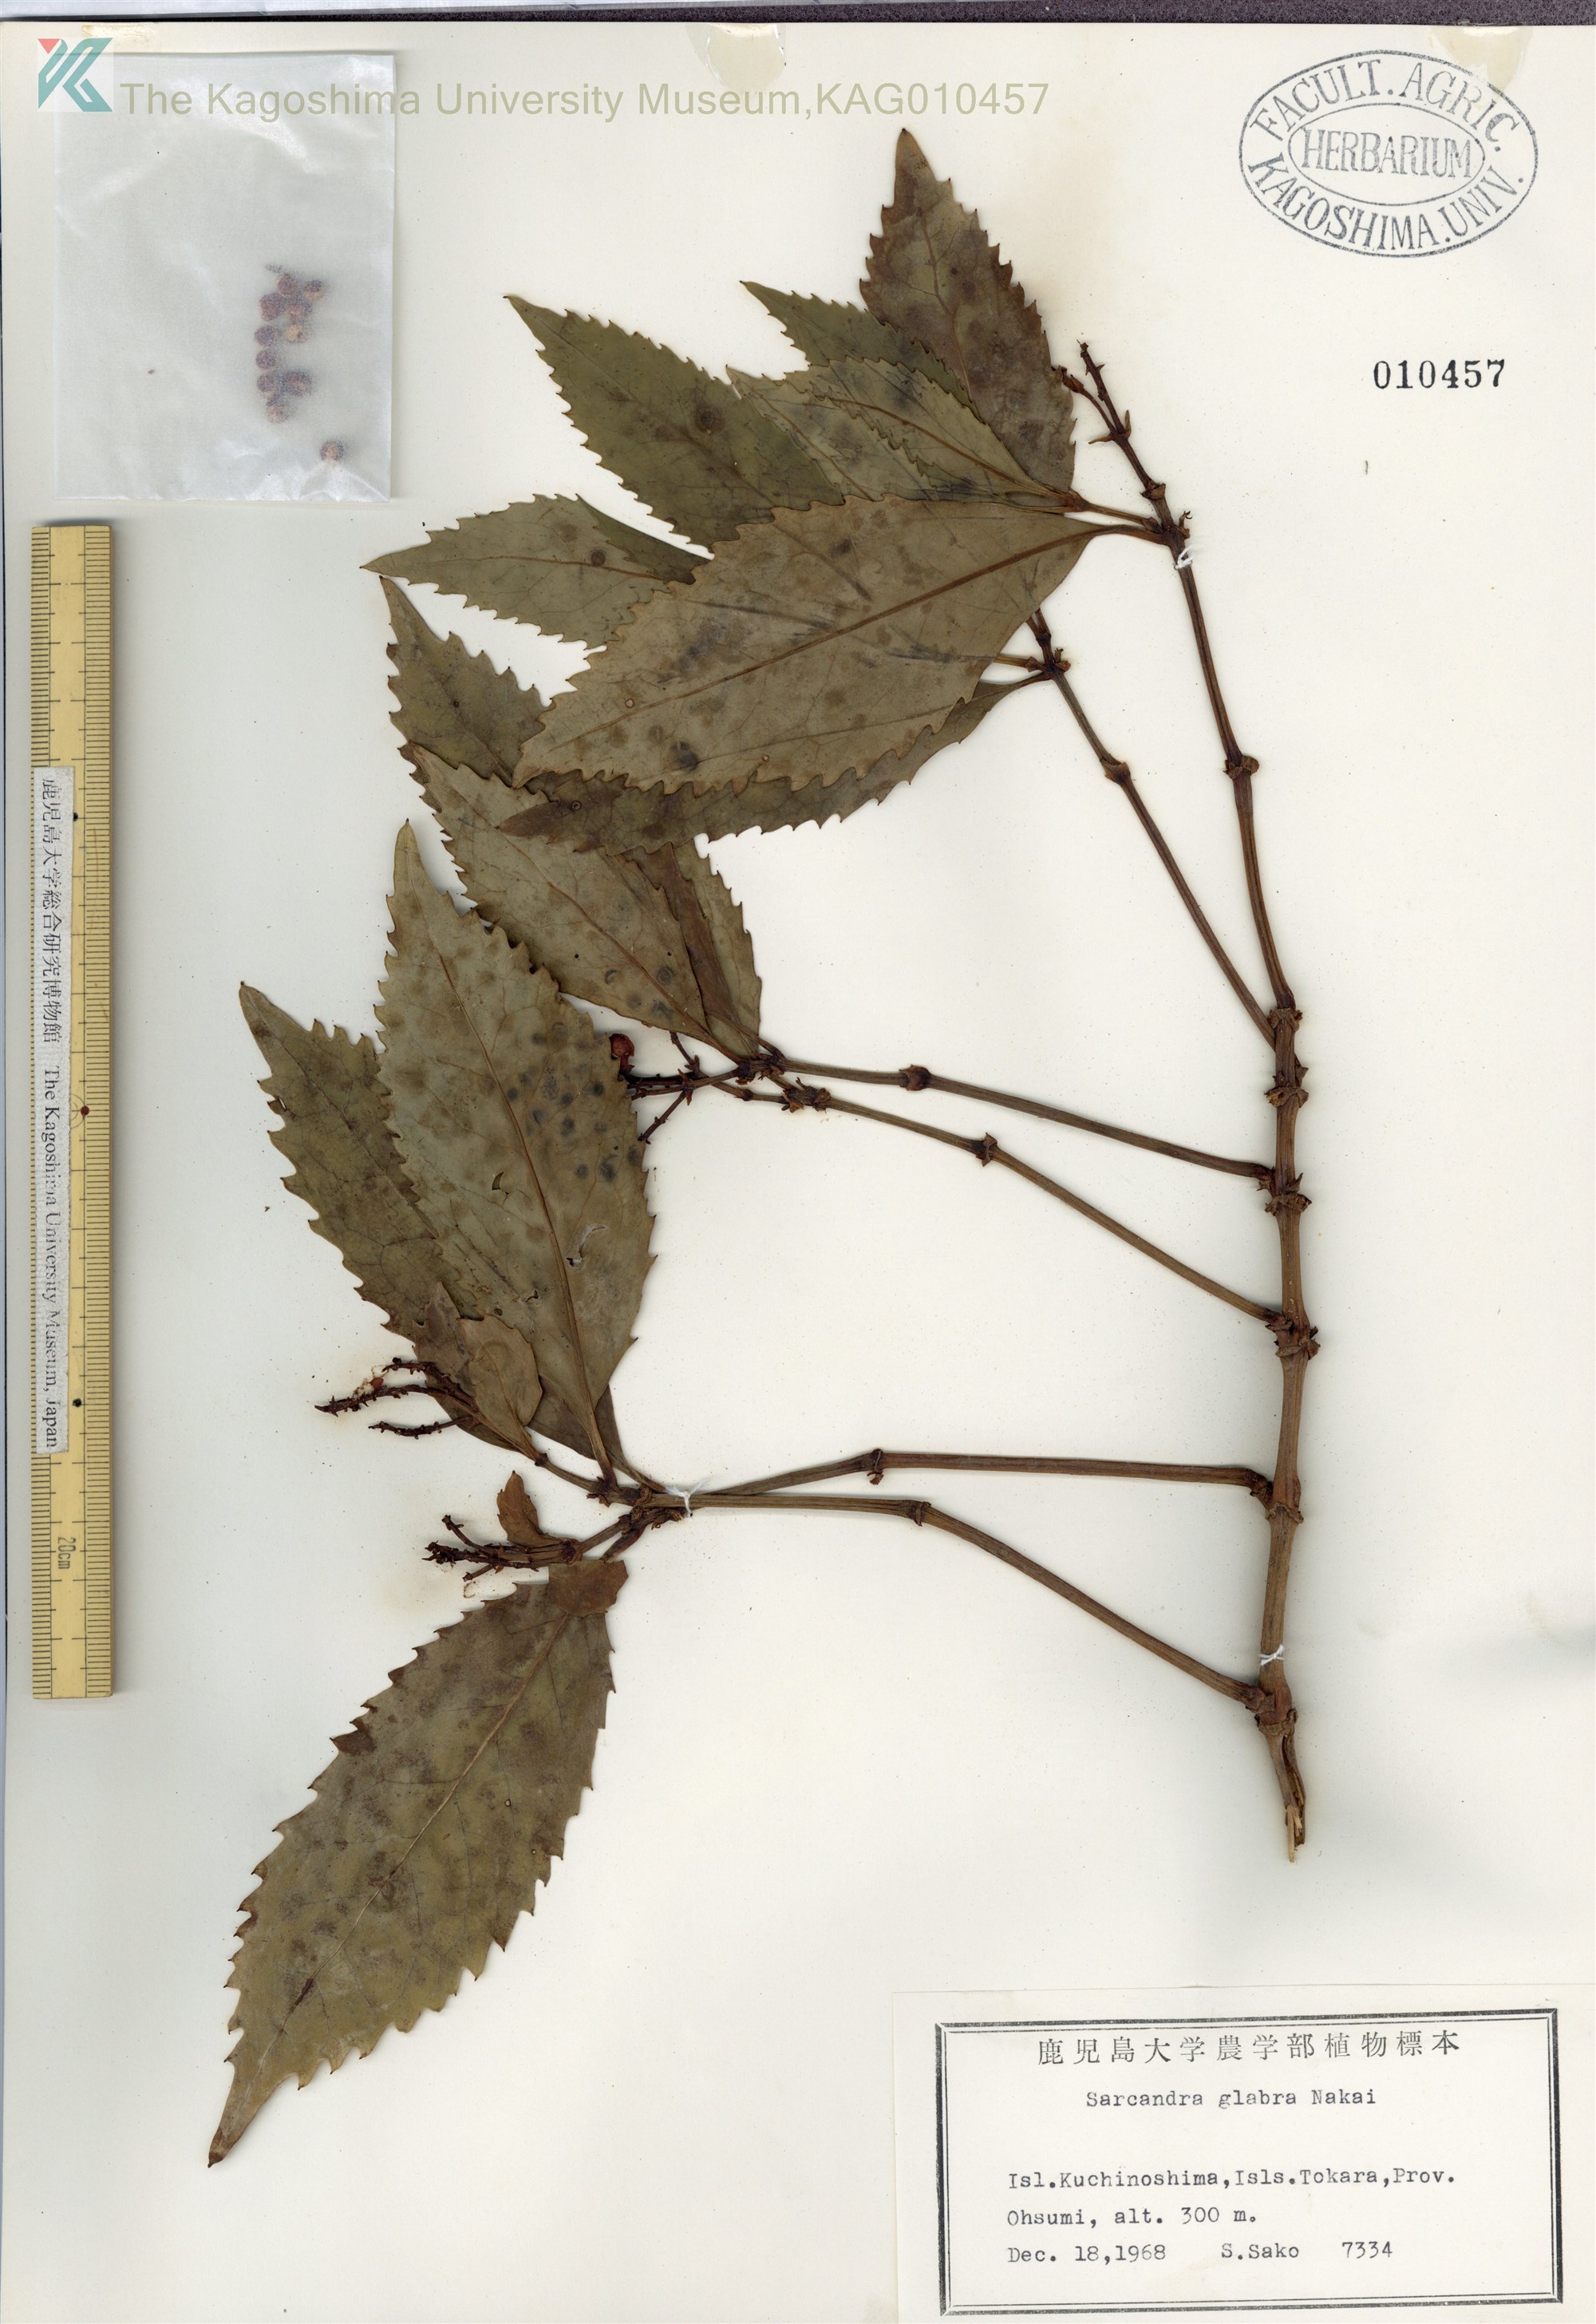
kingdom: Plantae
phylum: Tracheophyta
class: Magnoliopsida
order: Chloranthales
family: Chloranthaceae
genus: Sarcandra
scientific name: Sarcandra glabra
